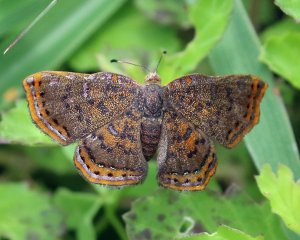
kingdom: Animalia
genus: Caria
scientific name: Caria ino
